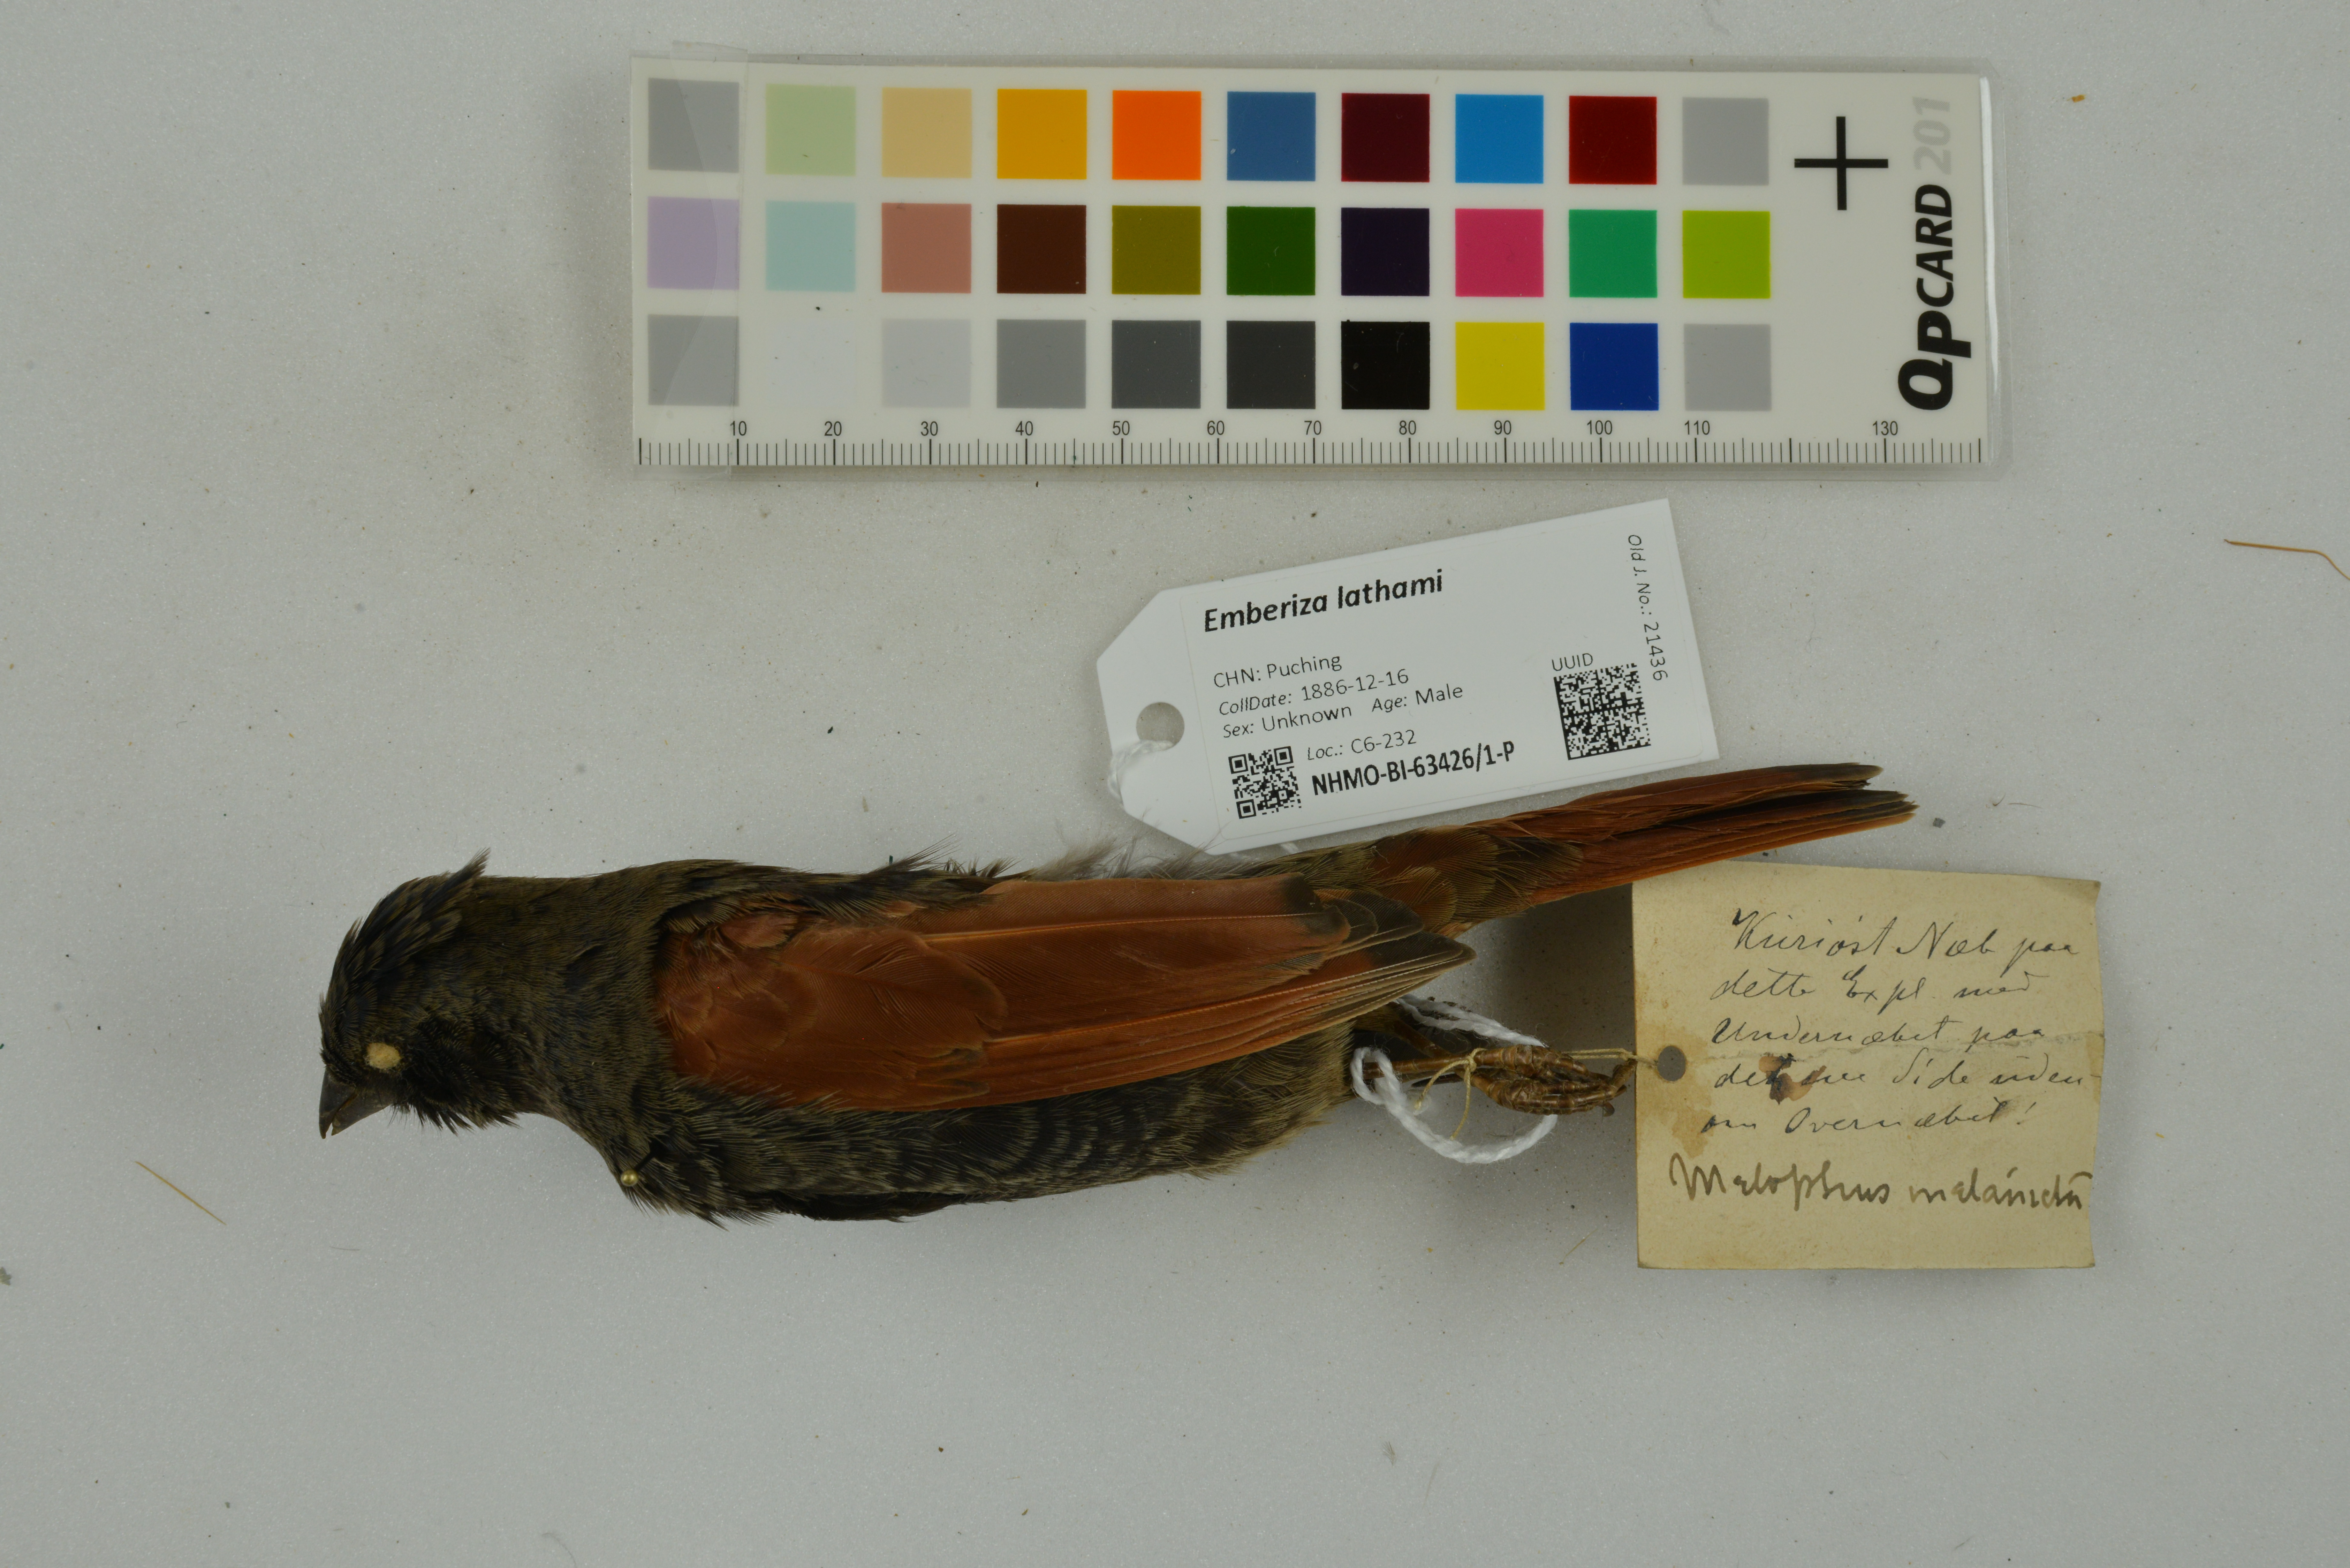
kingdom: Animalia
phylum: Chordata
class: Aves
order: Passeriformes
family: Emberizidae
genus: Emberiza
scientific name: Emberiza lathami
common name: Crested bunting
